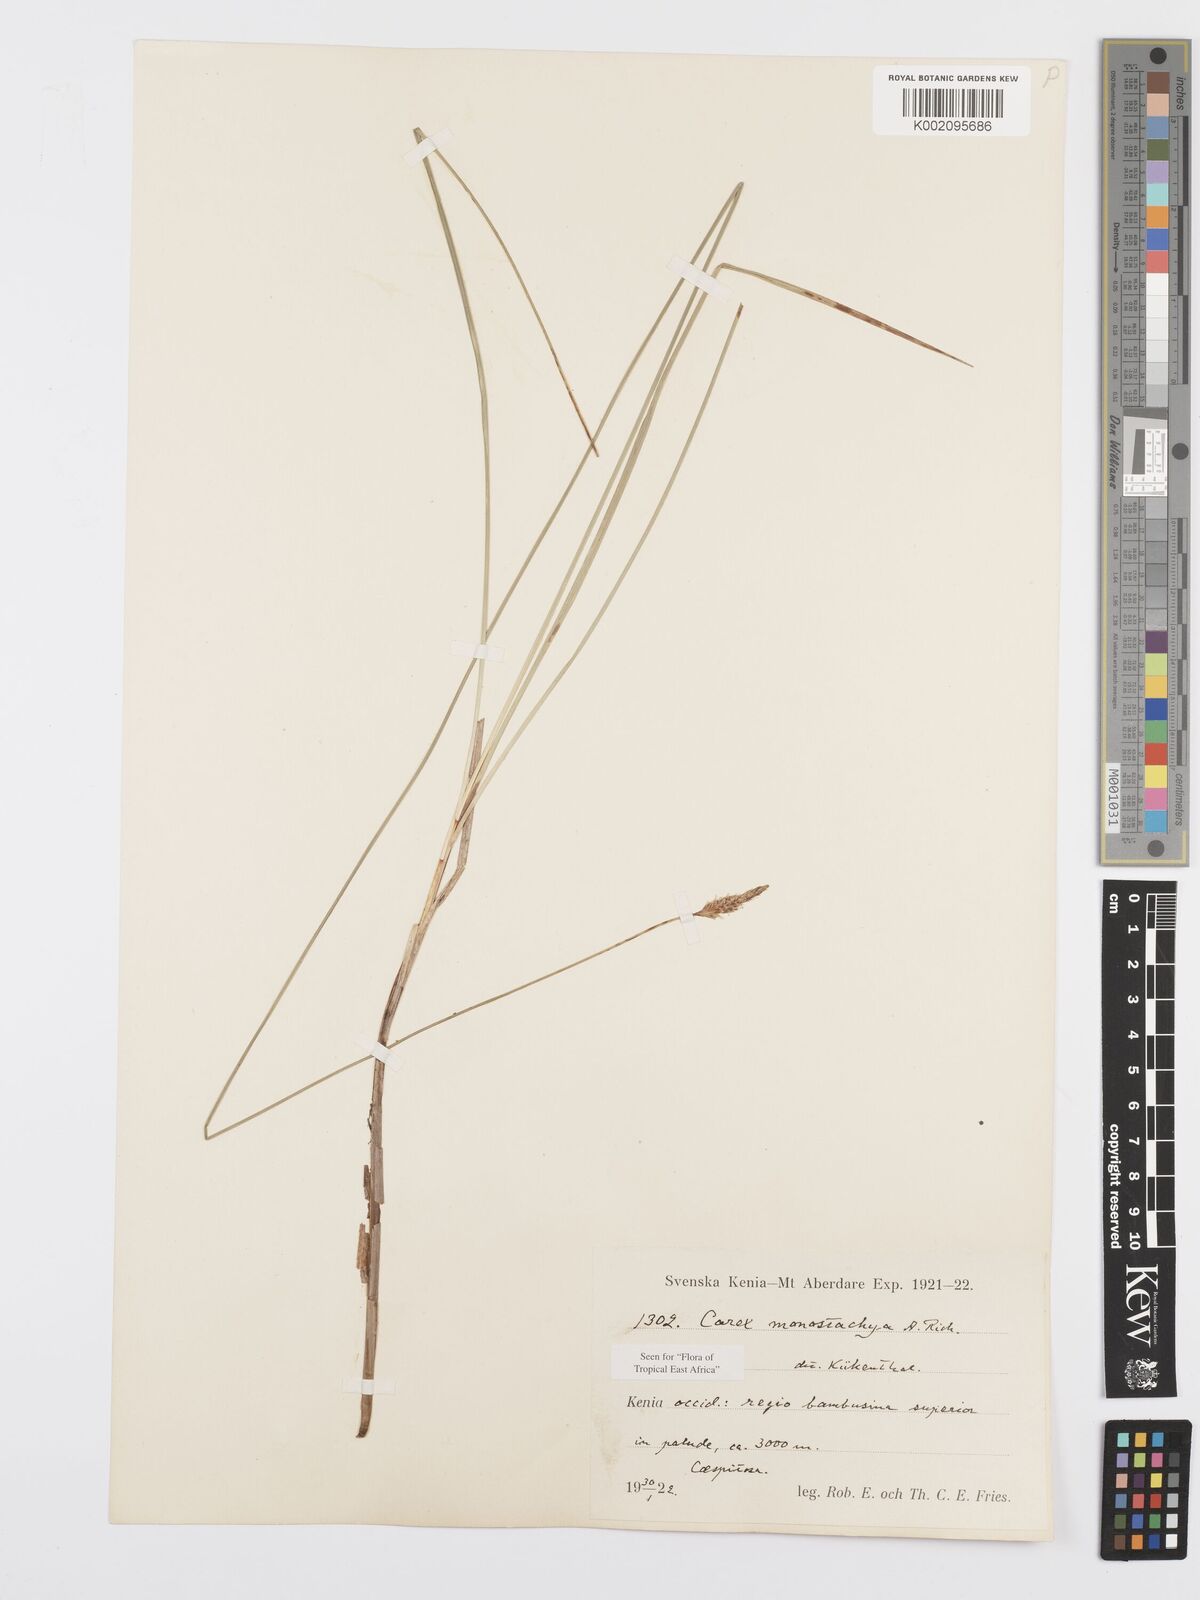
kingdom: Plantae
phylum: Tracheophyta
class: Liliopsida
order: Poales
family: Cyperaceae
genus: Carex
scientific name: Carex monostachya
